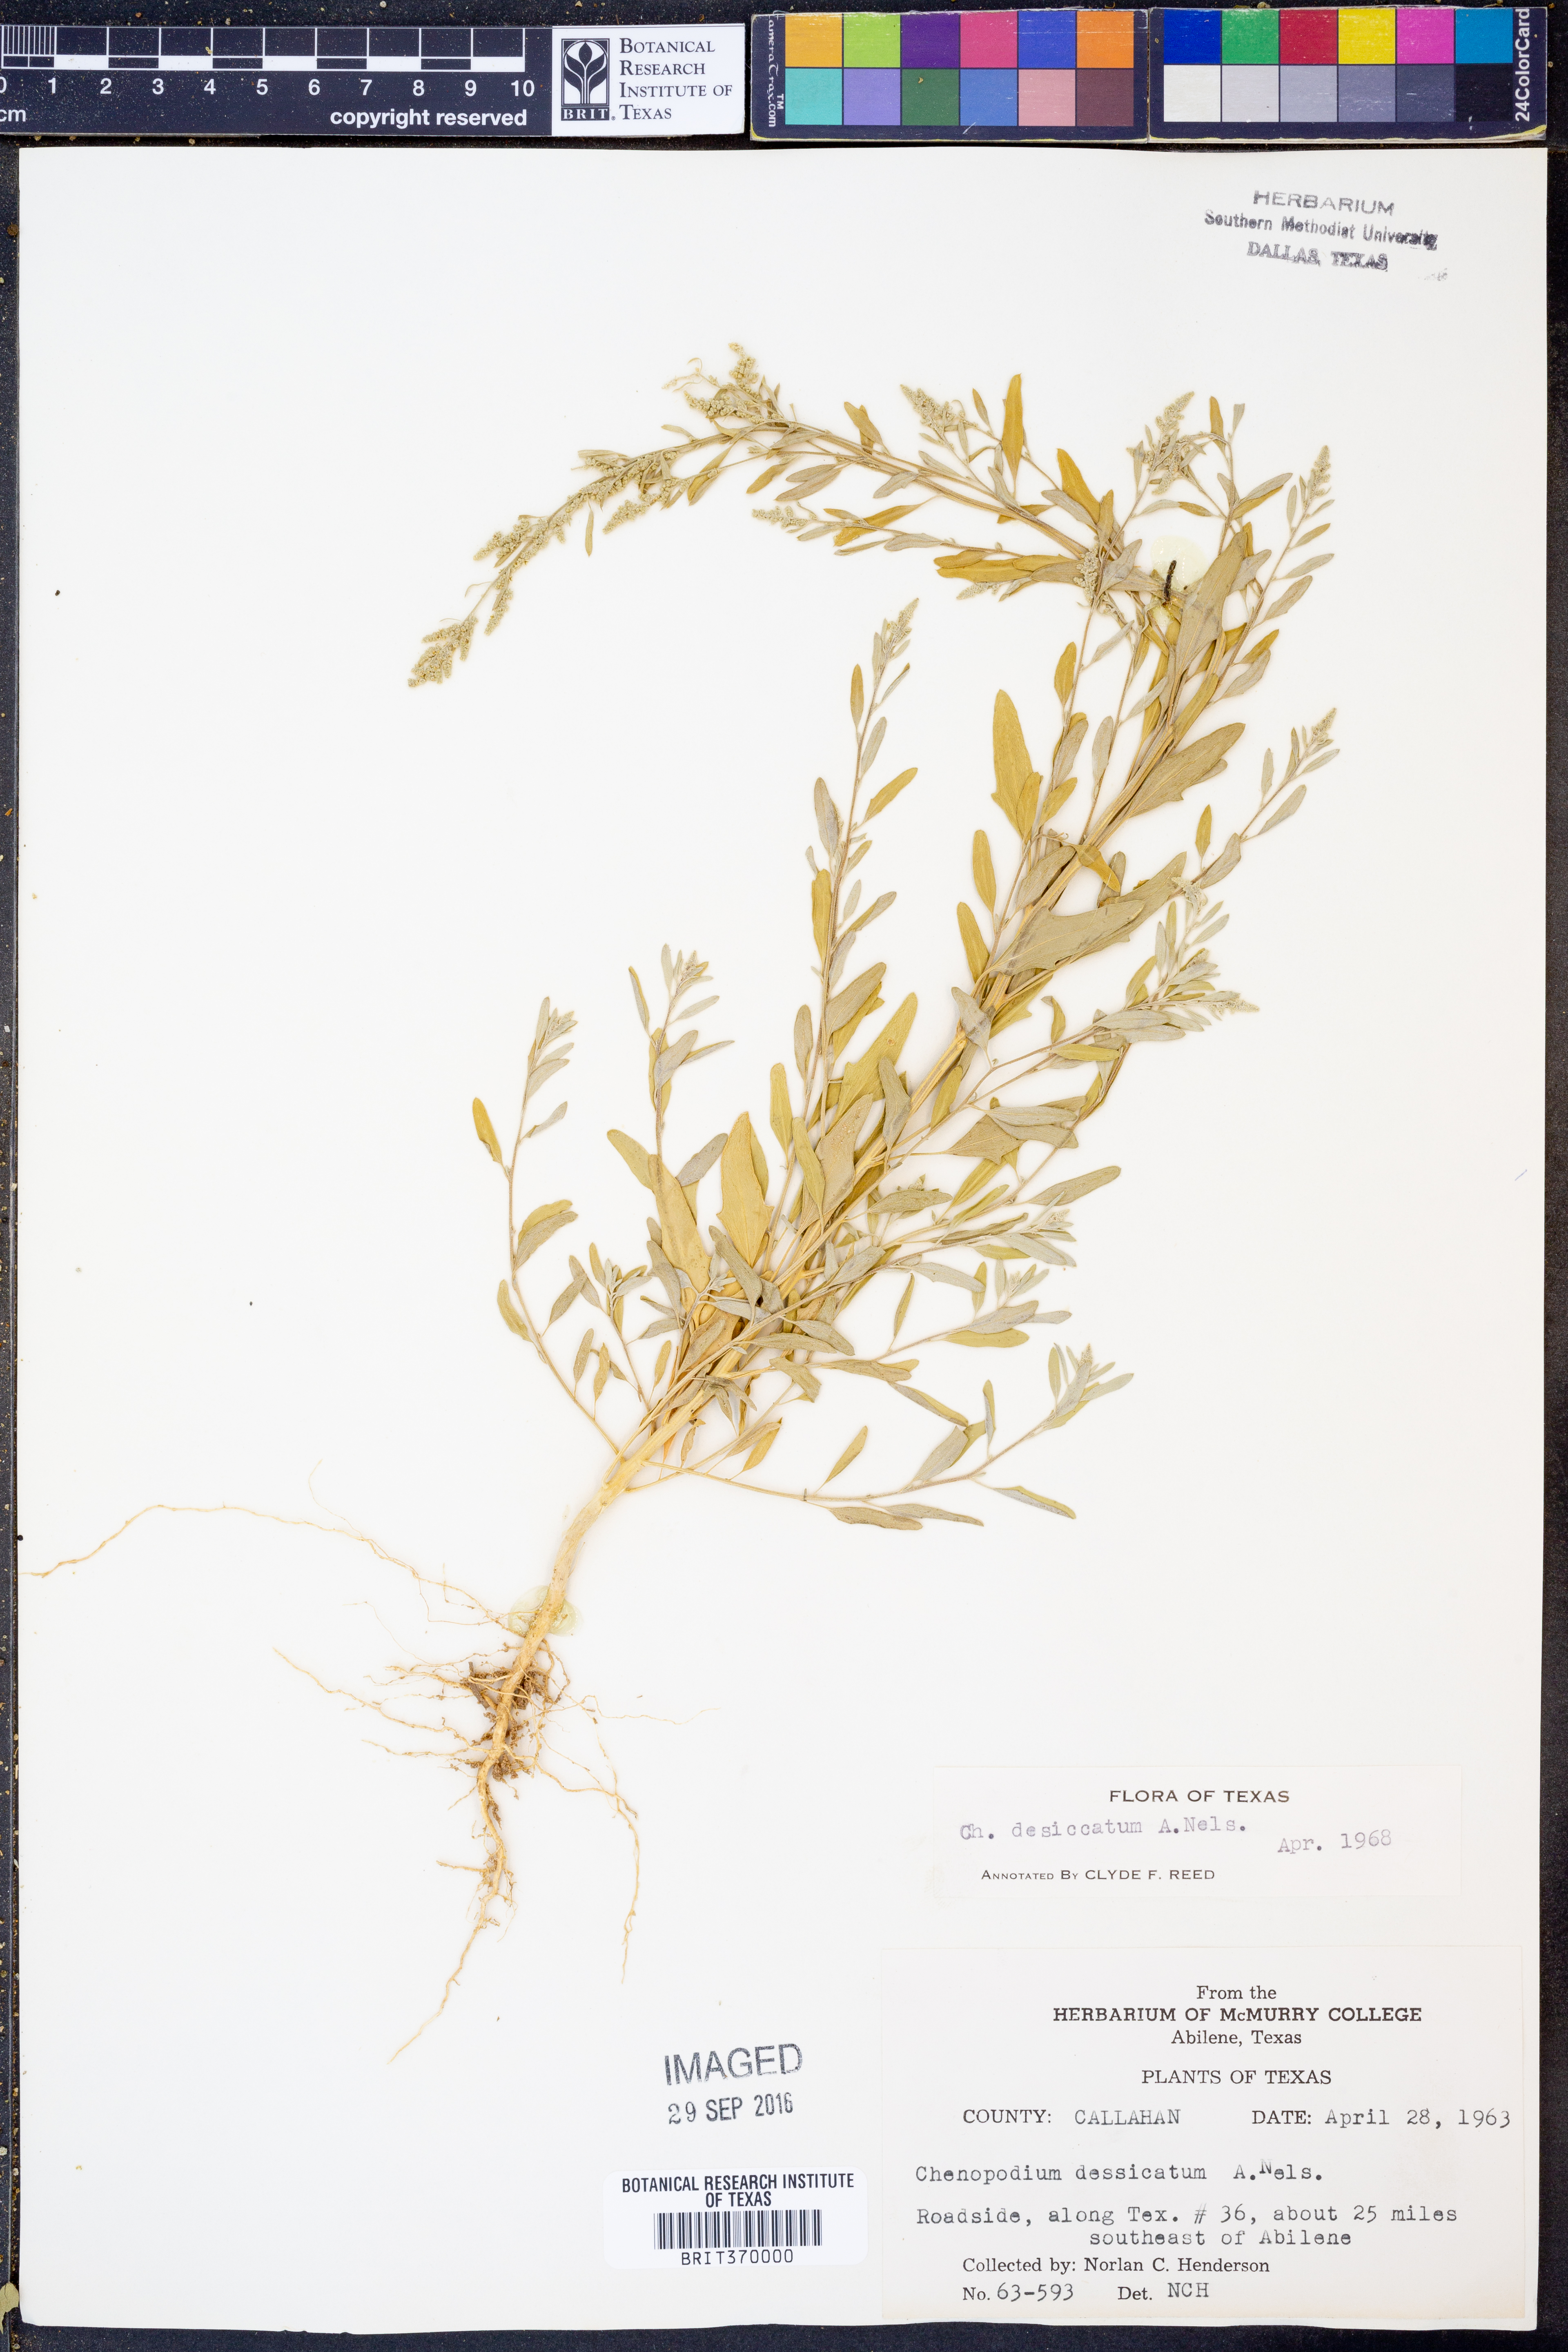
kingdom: Plantae
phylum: Tracheophyta
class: Magnoliopsida
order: Caryophyllales
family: Amaranthaceae
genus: Chenopodium
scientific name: Chenopodium desiccatum
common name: Slimleaf goosefoot
